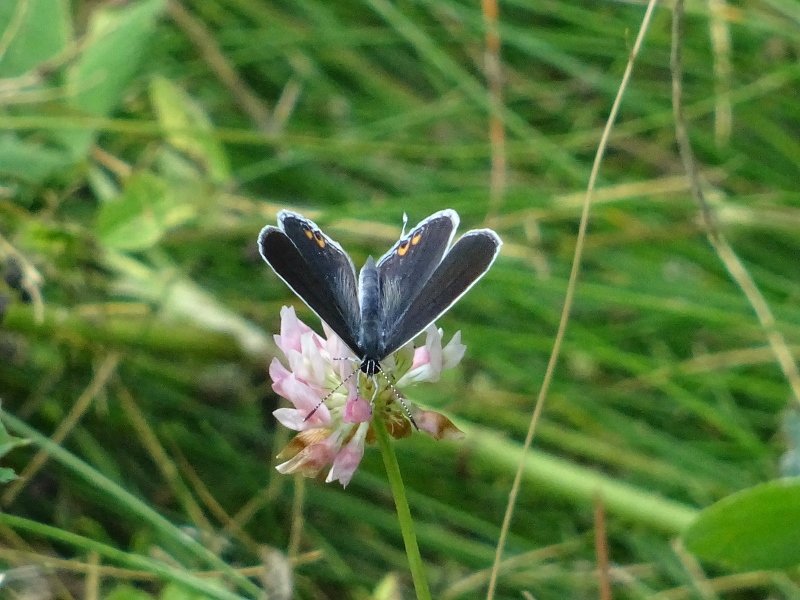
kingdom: Animalia
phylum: Arthropoda
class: Insecta
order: Lepidoptera
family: Lycaenidae
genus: Elkalyce
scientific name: Elkalyce comyntas
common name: Eastern Tailed-Blue
